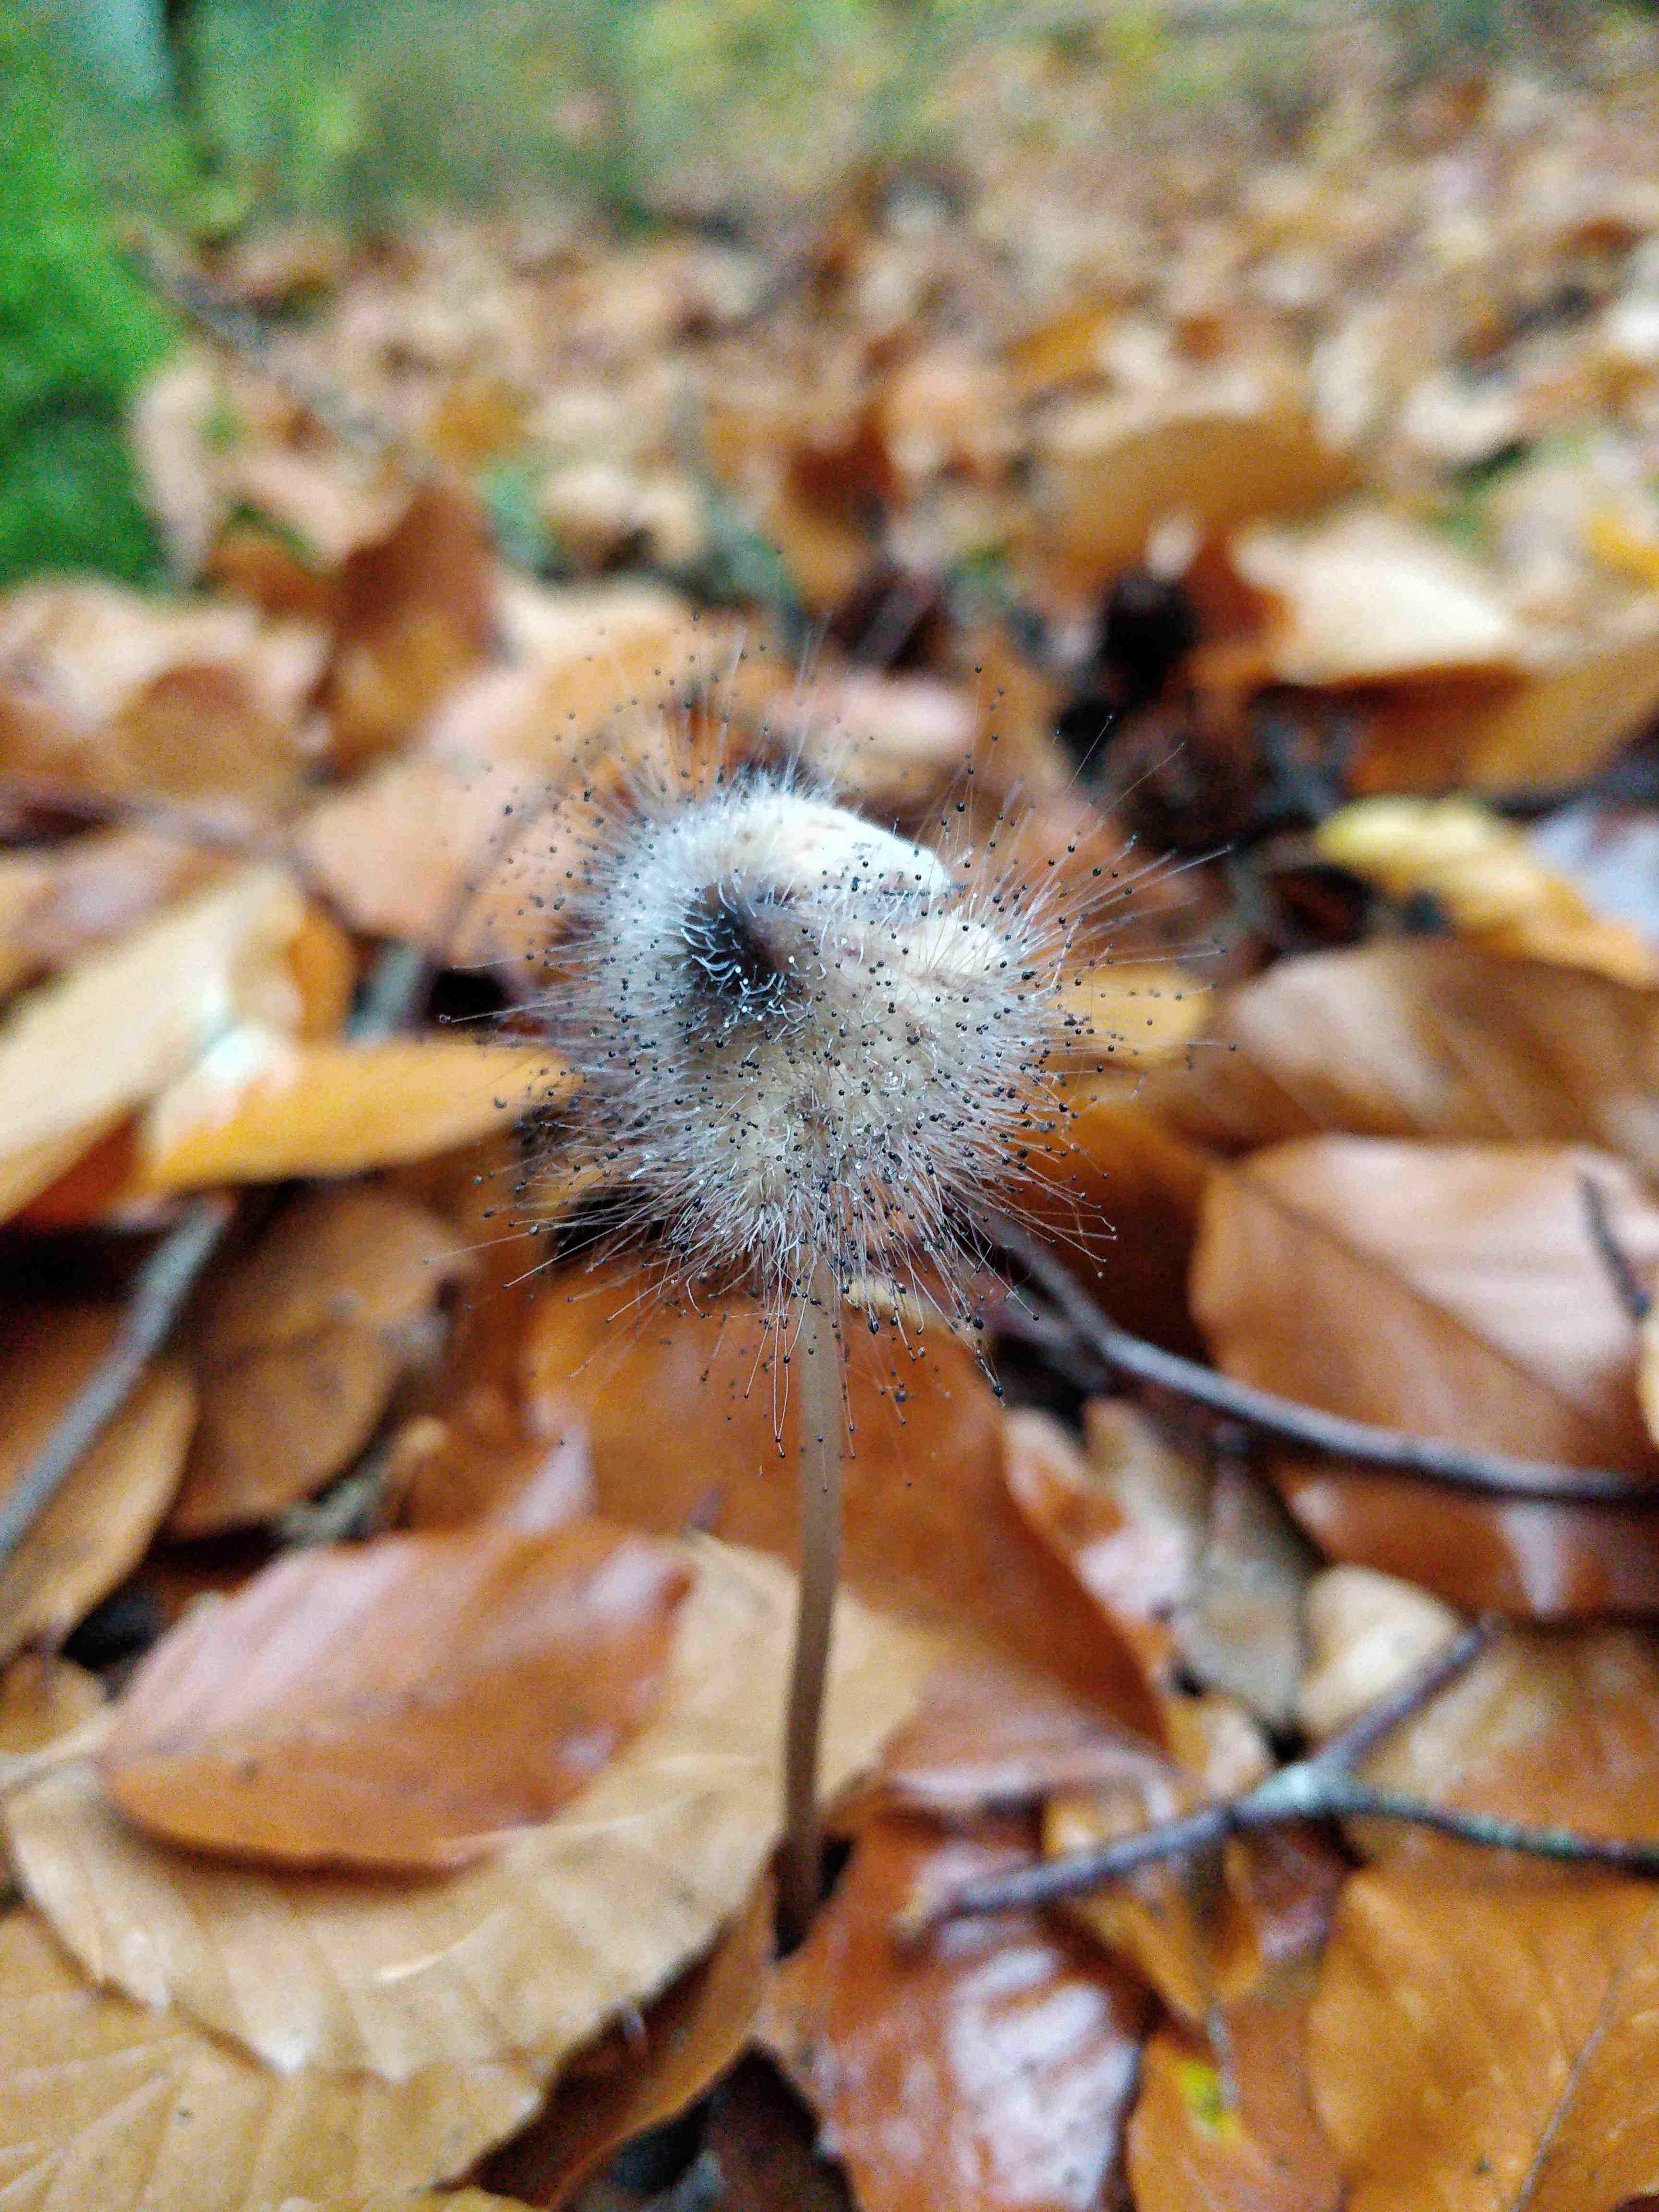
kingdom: Fungi
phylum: Mucoromycota
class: Mucoromycetes
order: Mucorales
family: Phycomycetaceae
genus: Spinellus
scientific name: Spinellus fusiger
